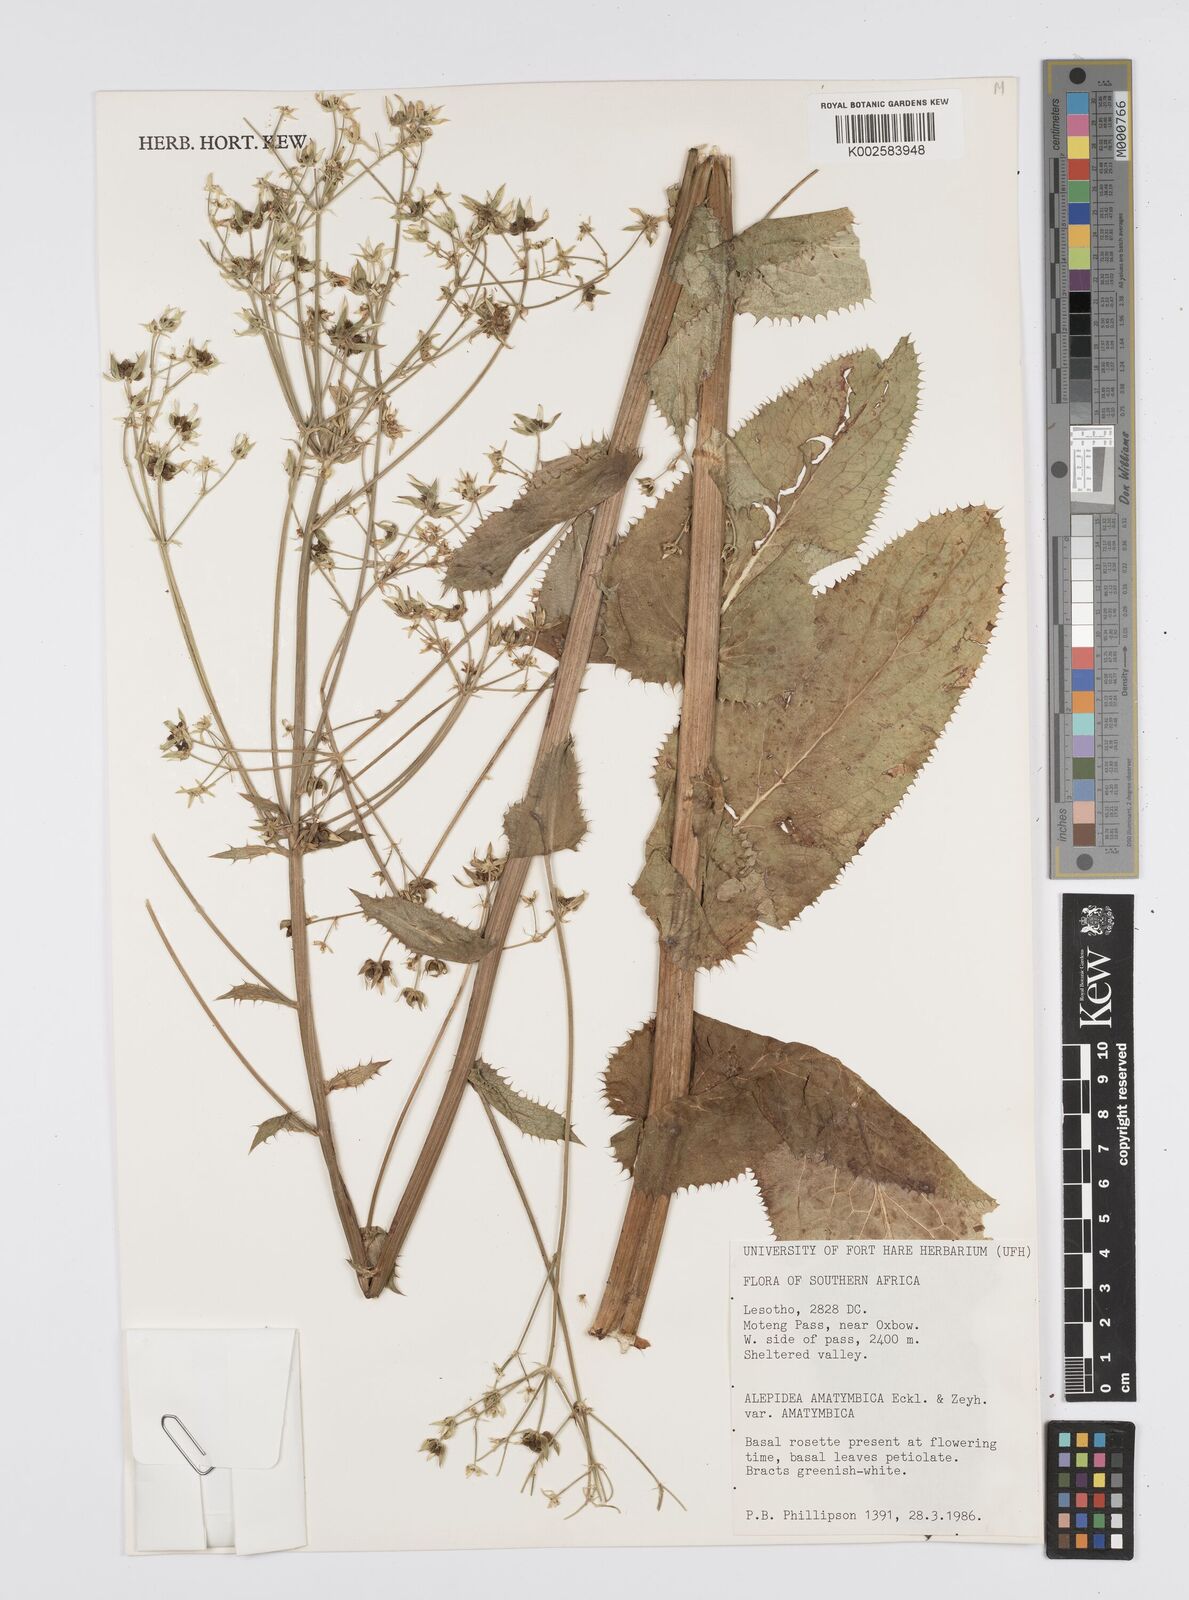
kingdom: Plantae
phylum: Tracheophyta
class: Magnoliopsida
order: Apiales
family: Apiaceae
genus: Alepidea
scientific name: Alepidea amatymbica
